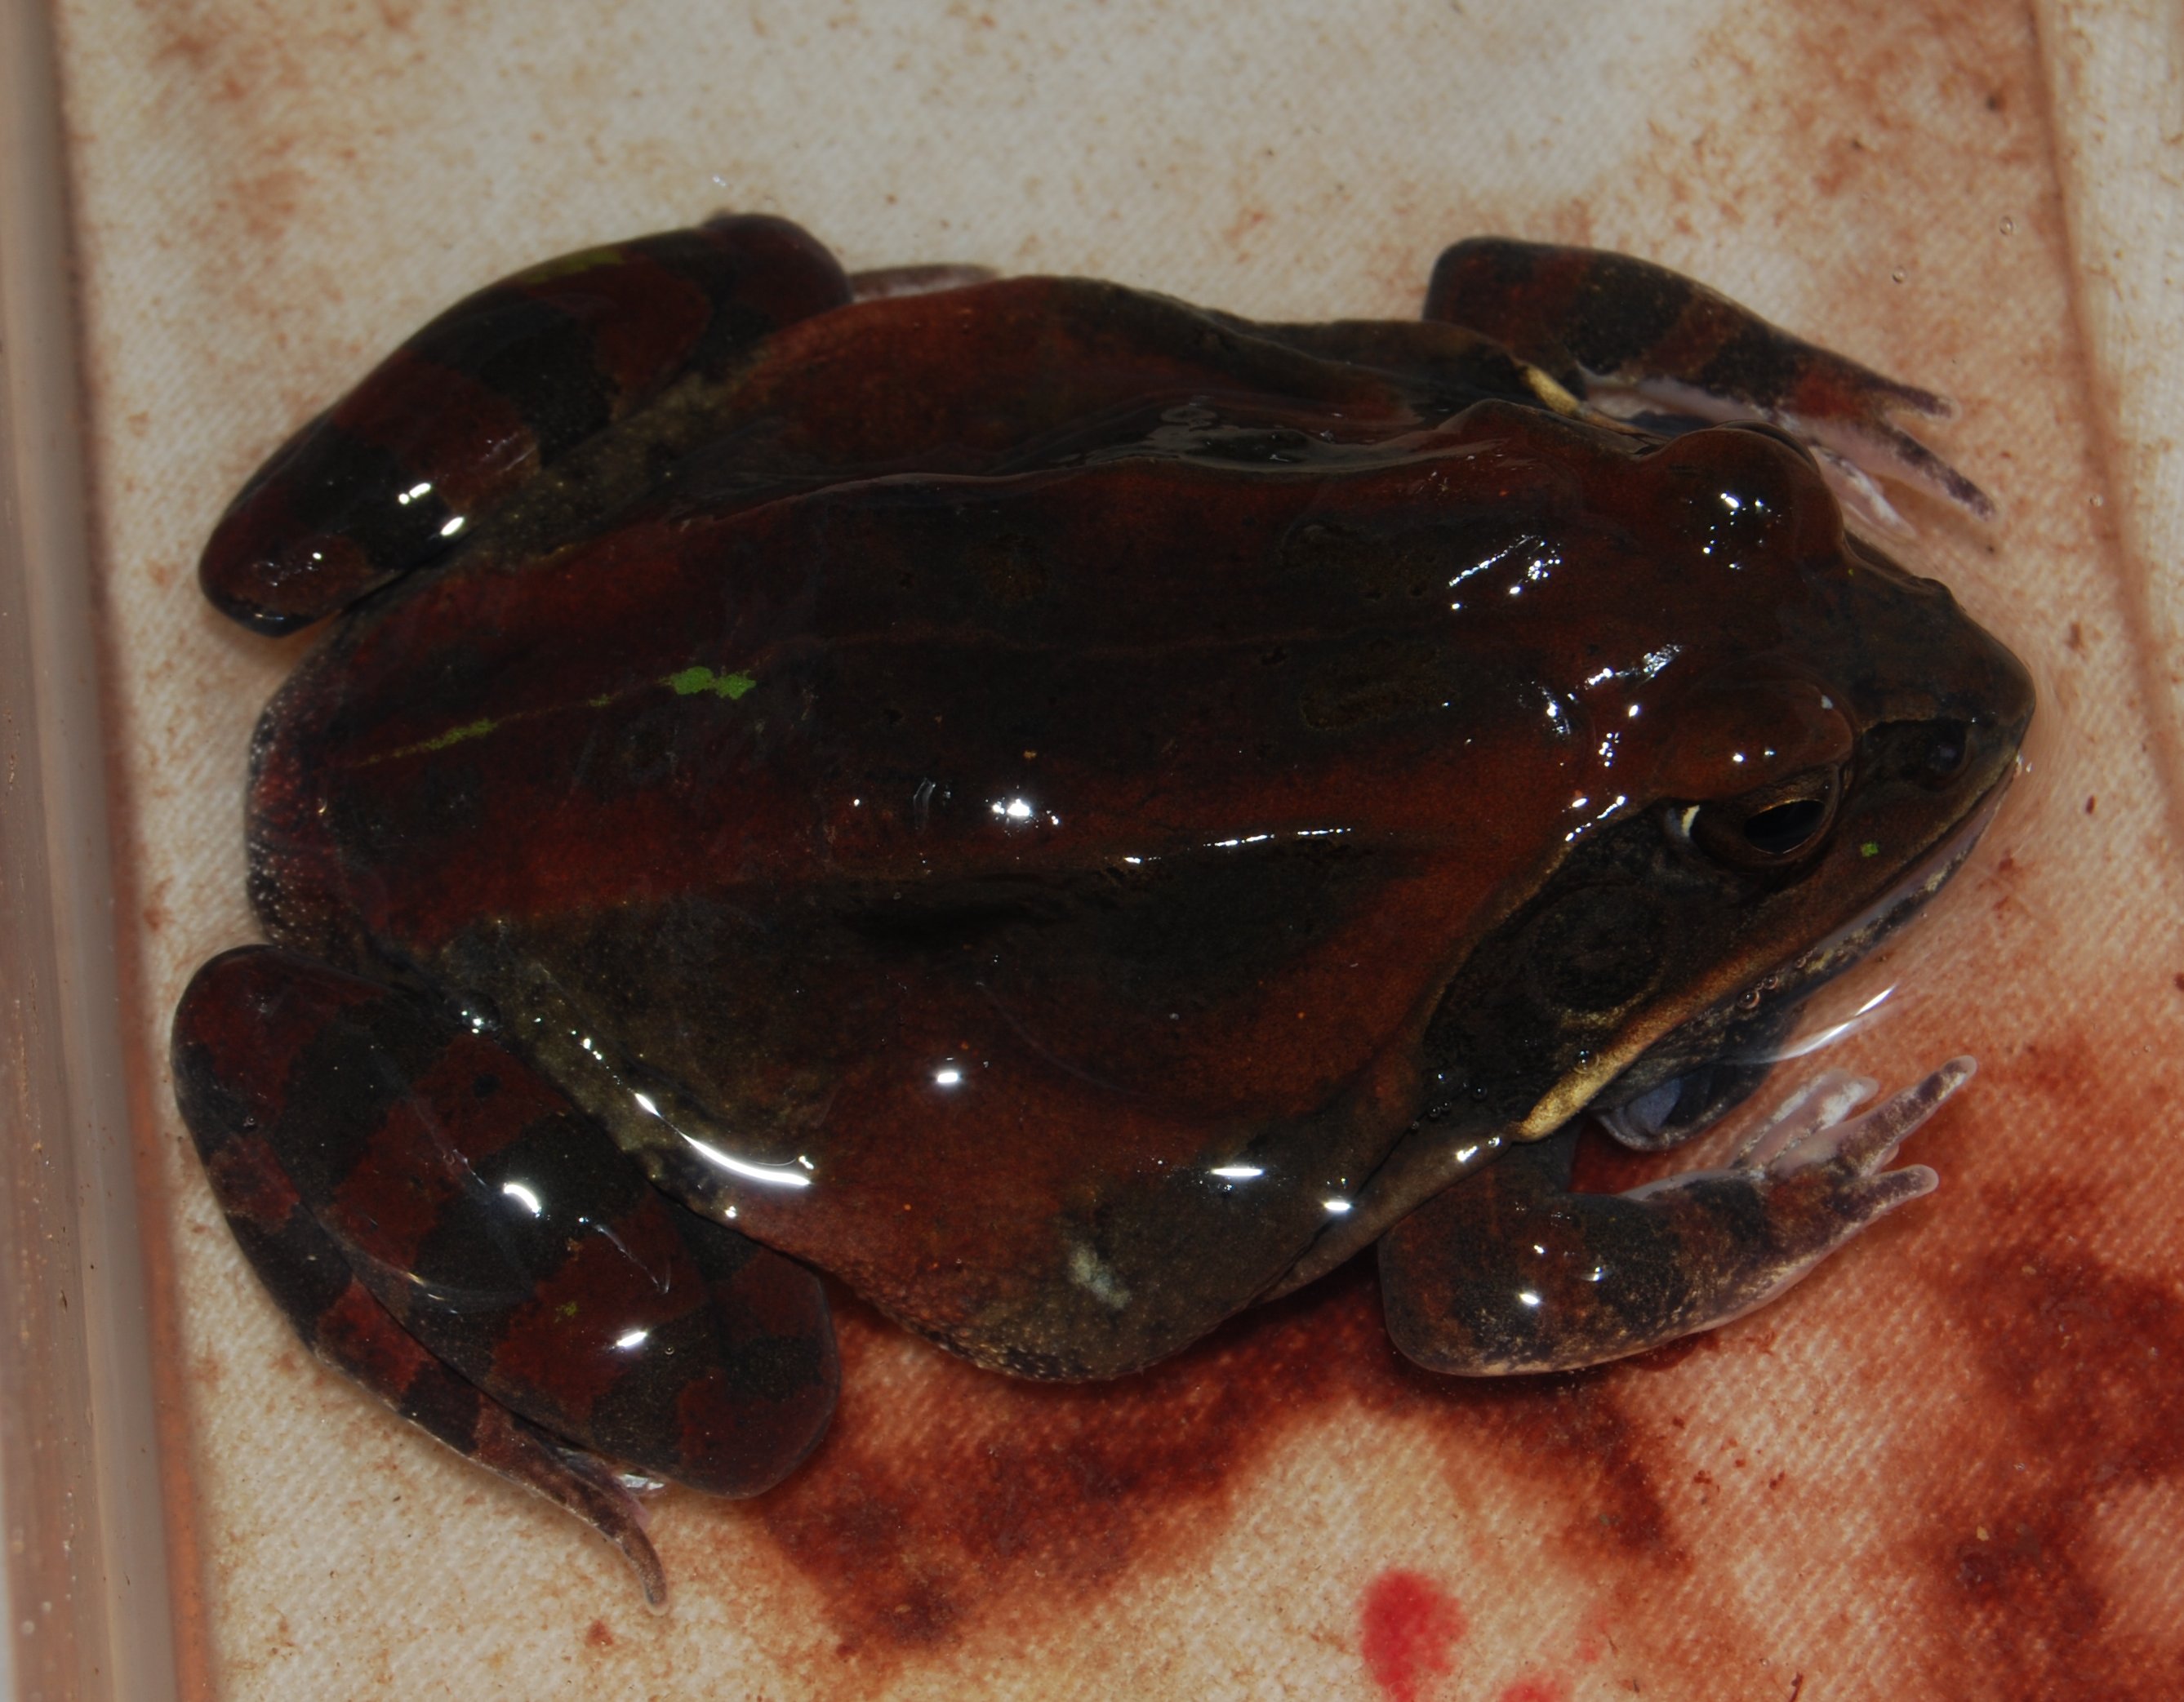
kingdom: Animalia
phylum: Chordata
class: Amphibia
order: Anura
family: Ptychadenidae
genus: Hildebrandtia
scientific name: Hildebrandtia
